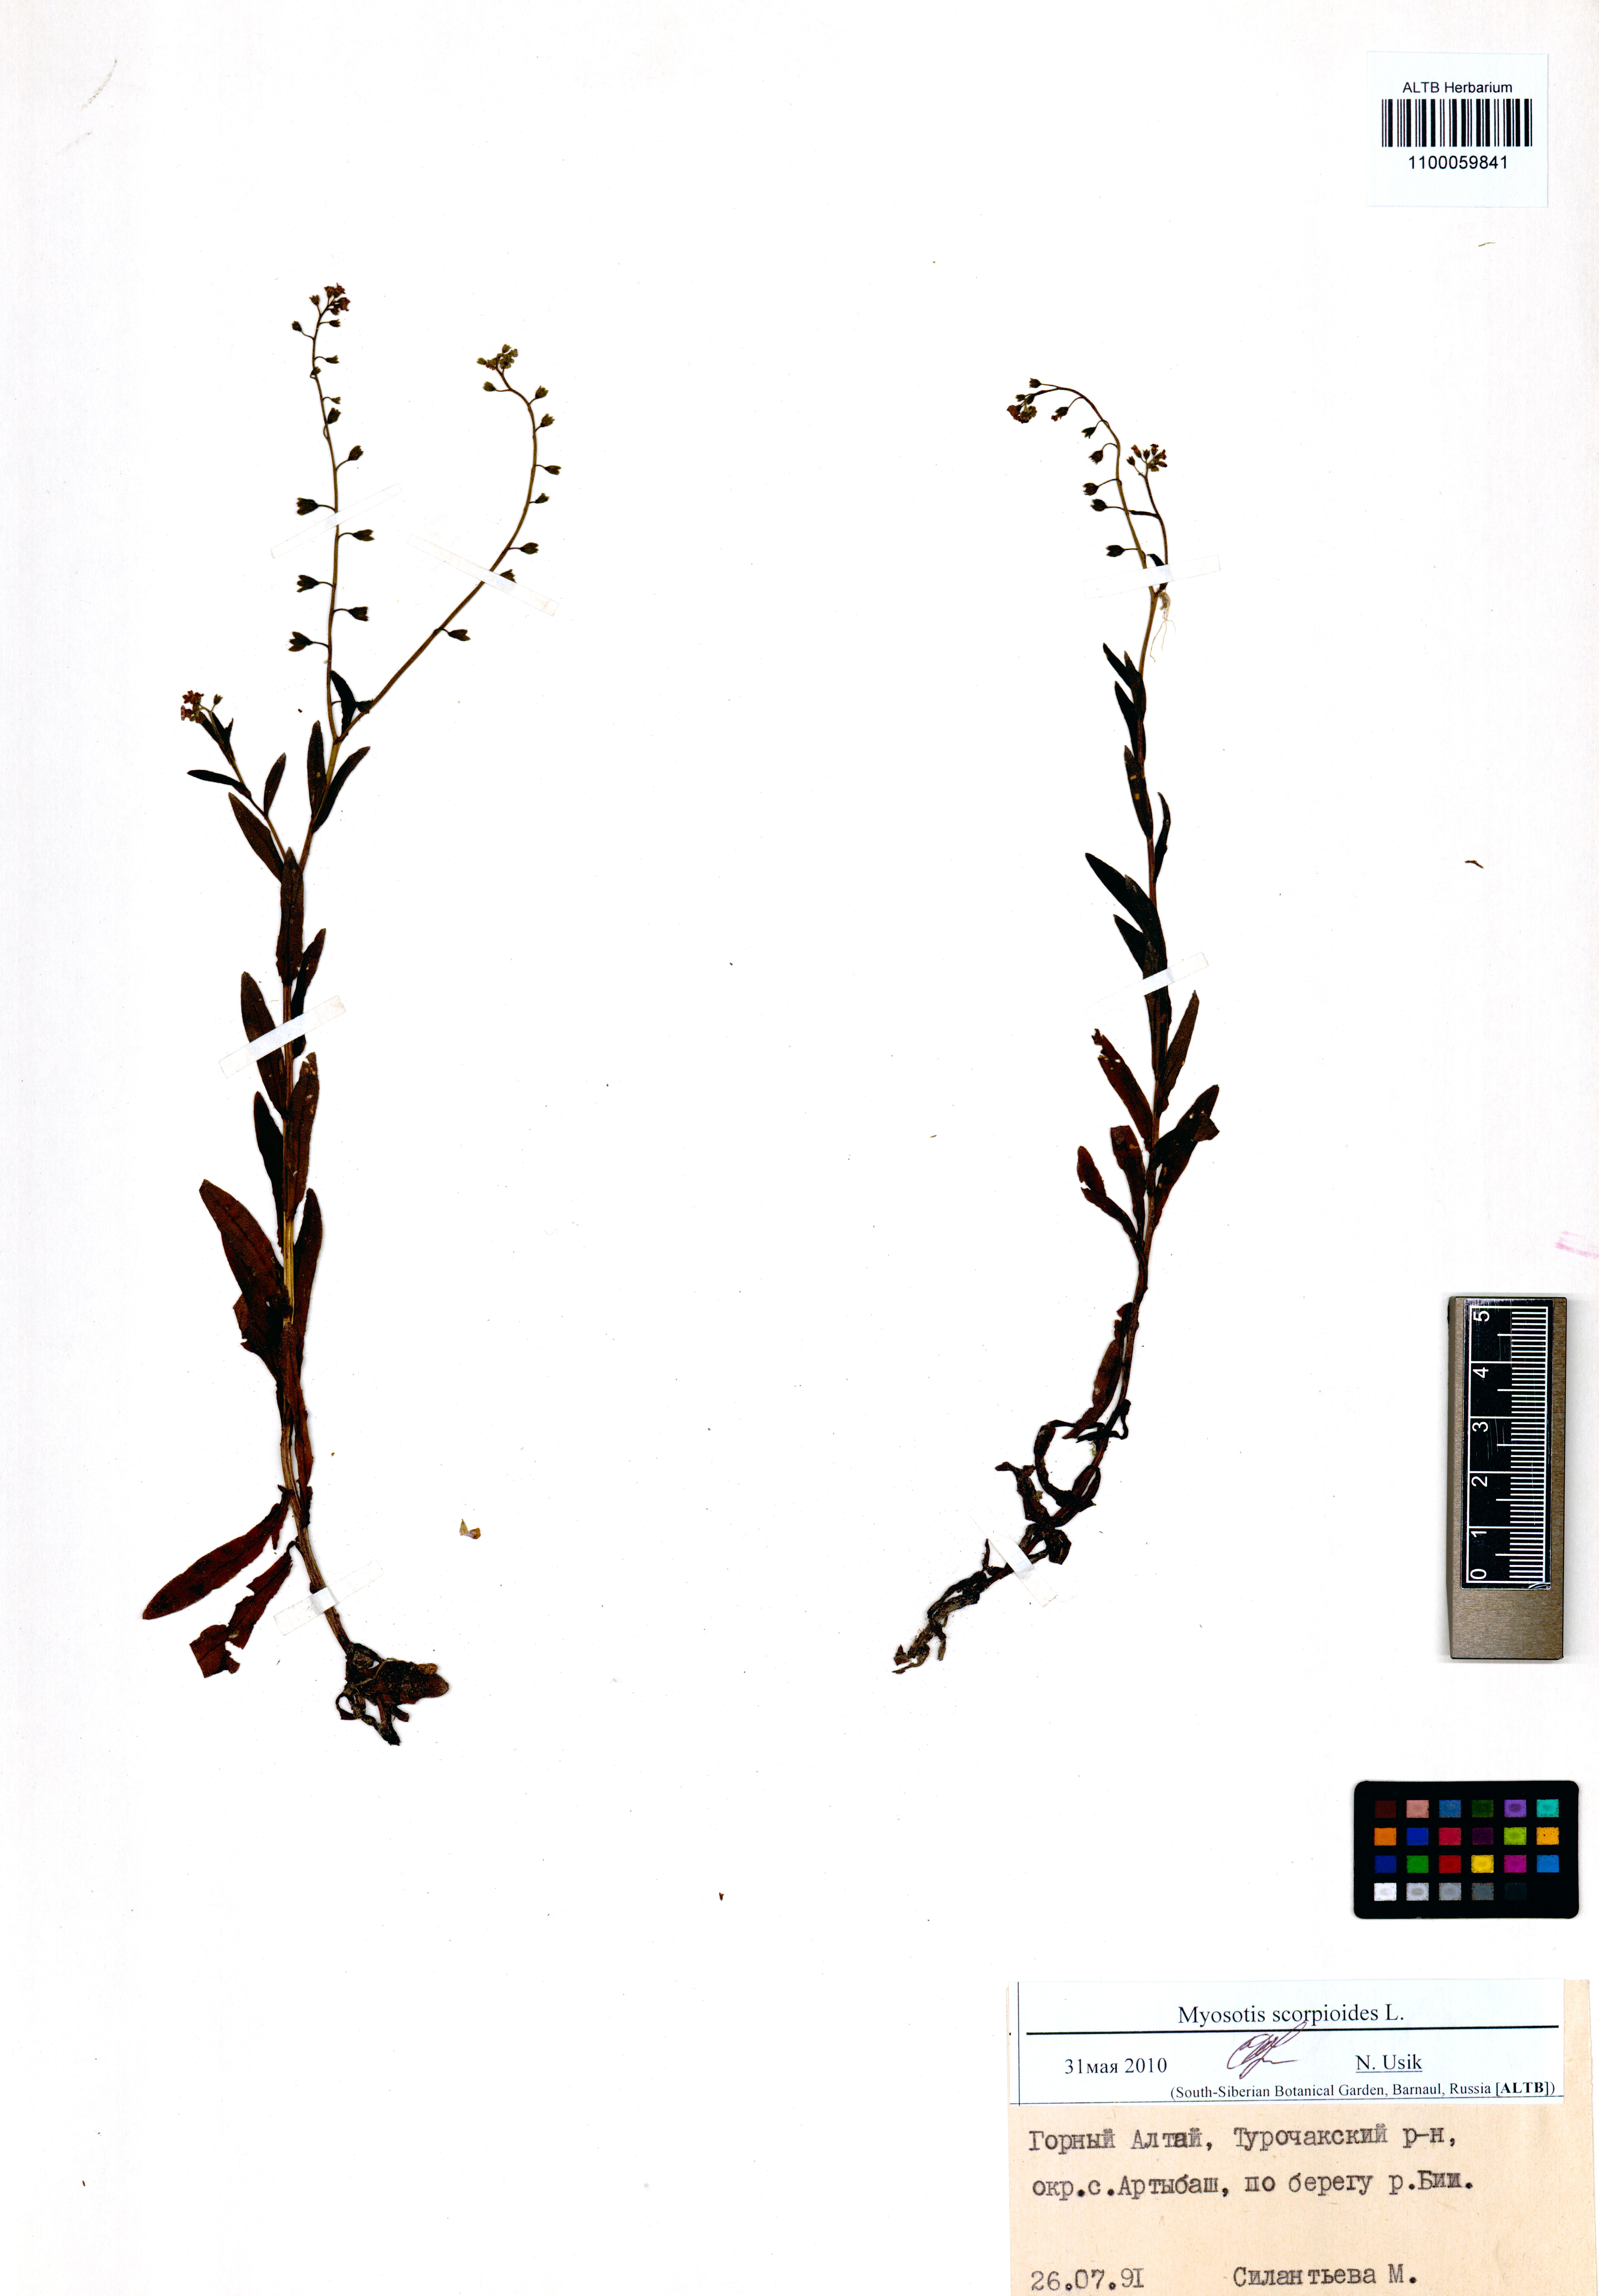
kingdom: Plantae
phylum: Tracheophyta
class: Magnoliopsida
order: Boraginales
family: Boraginaceae
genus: Myosotis
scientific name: Myosotis scorpioides
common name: Water forget-me-not
